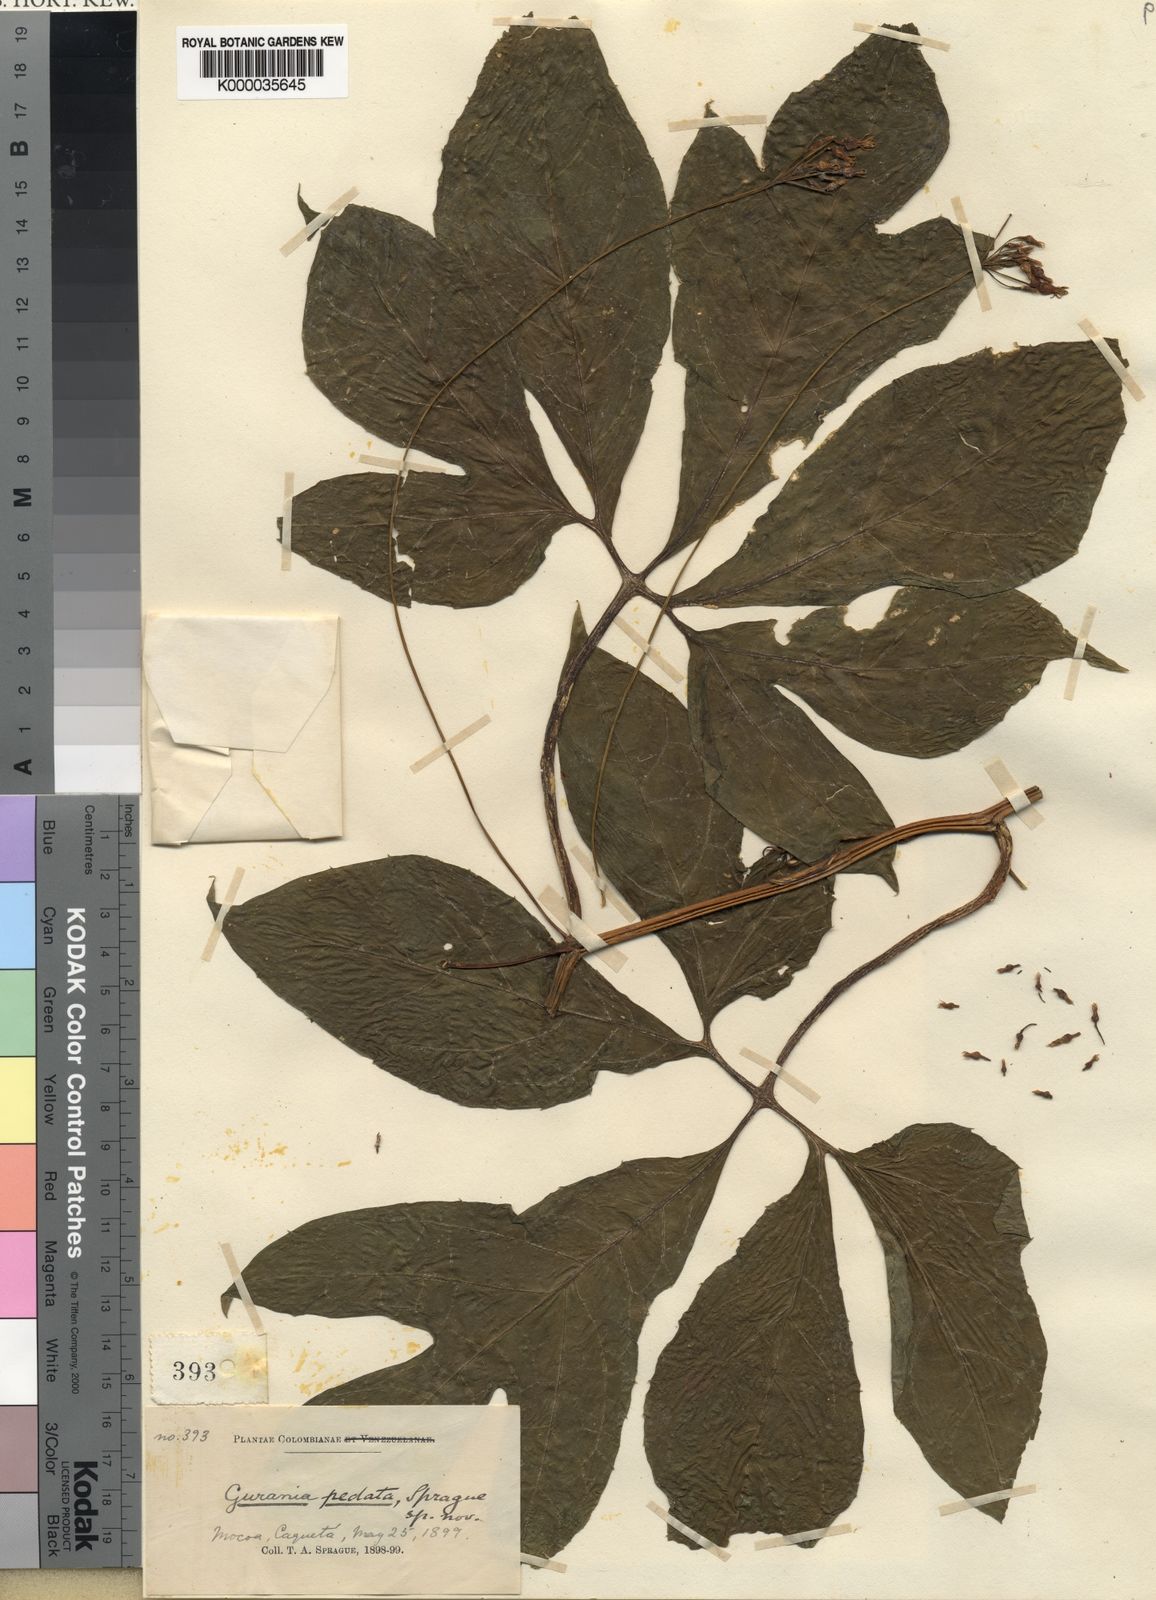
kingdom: Plantae
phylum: Tracheophyta
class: Magnoliopsida
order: Cucurbitales
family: Cucurbitaceae
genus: Gurania
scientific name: Gurania pedata
